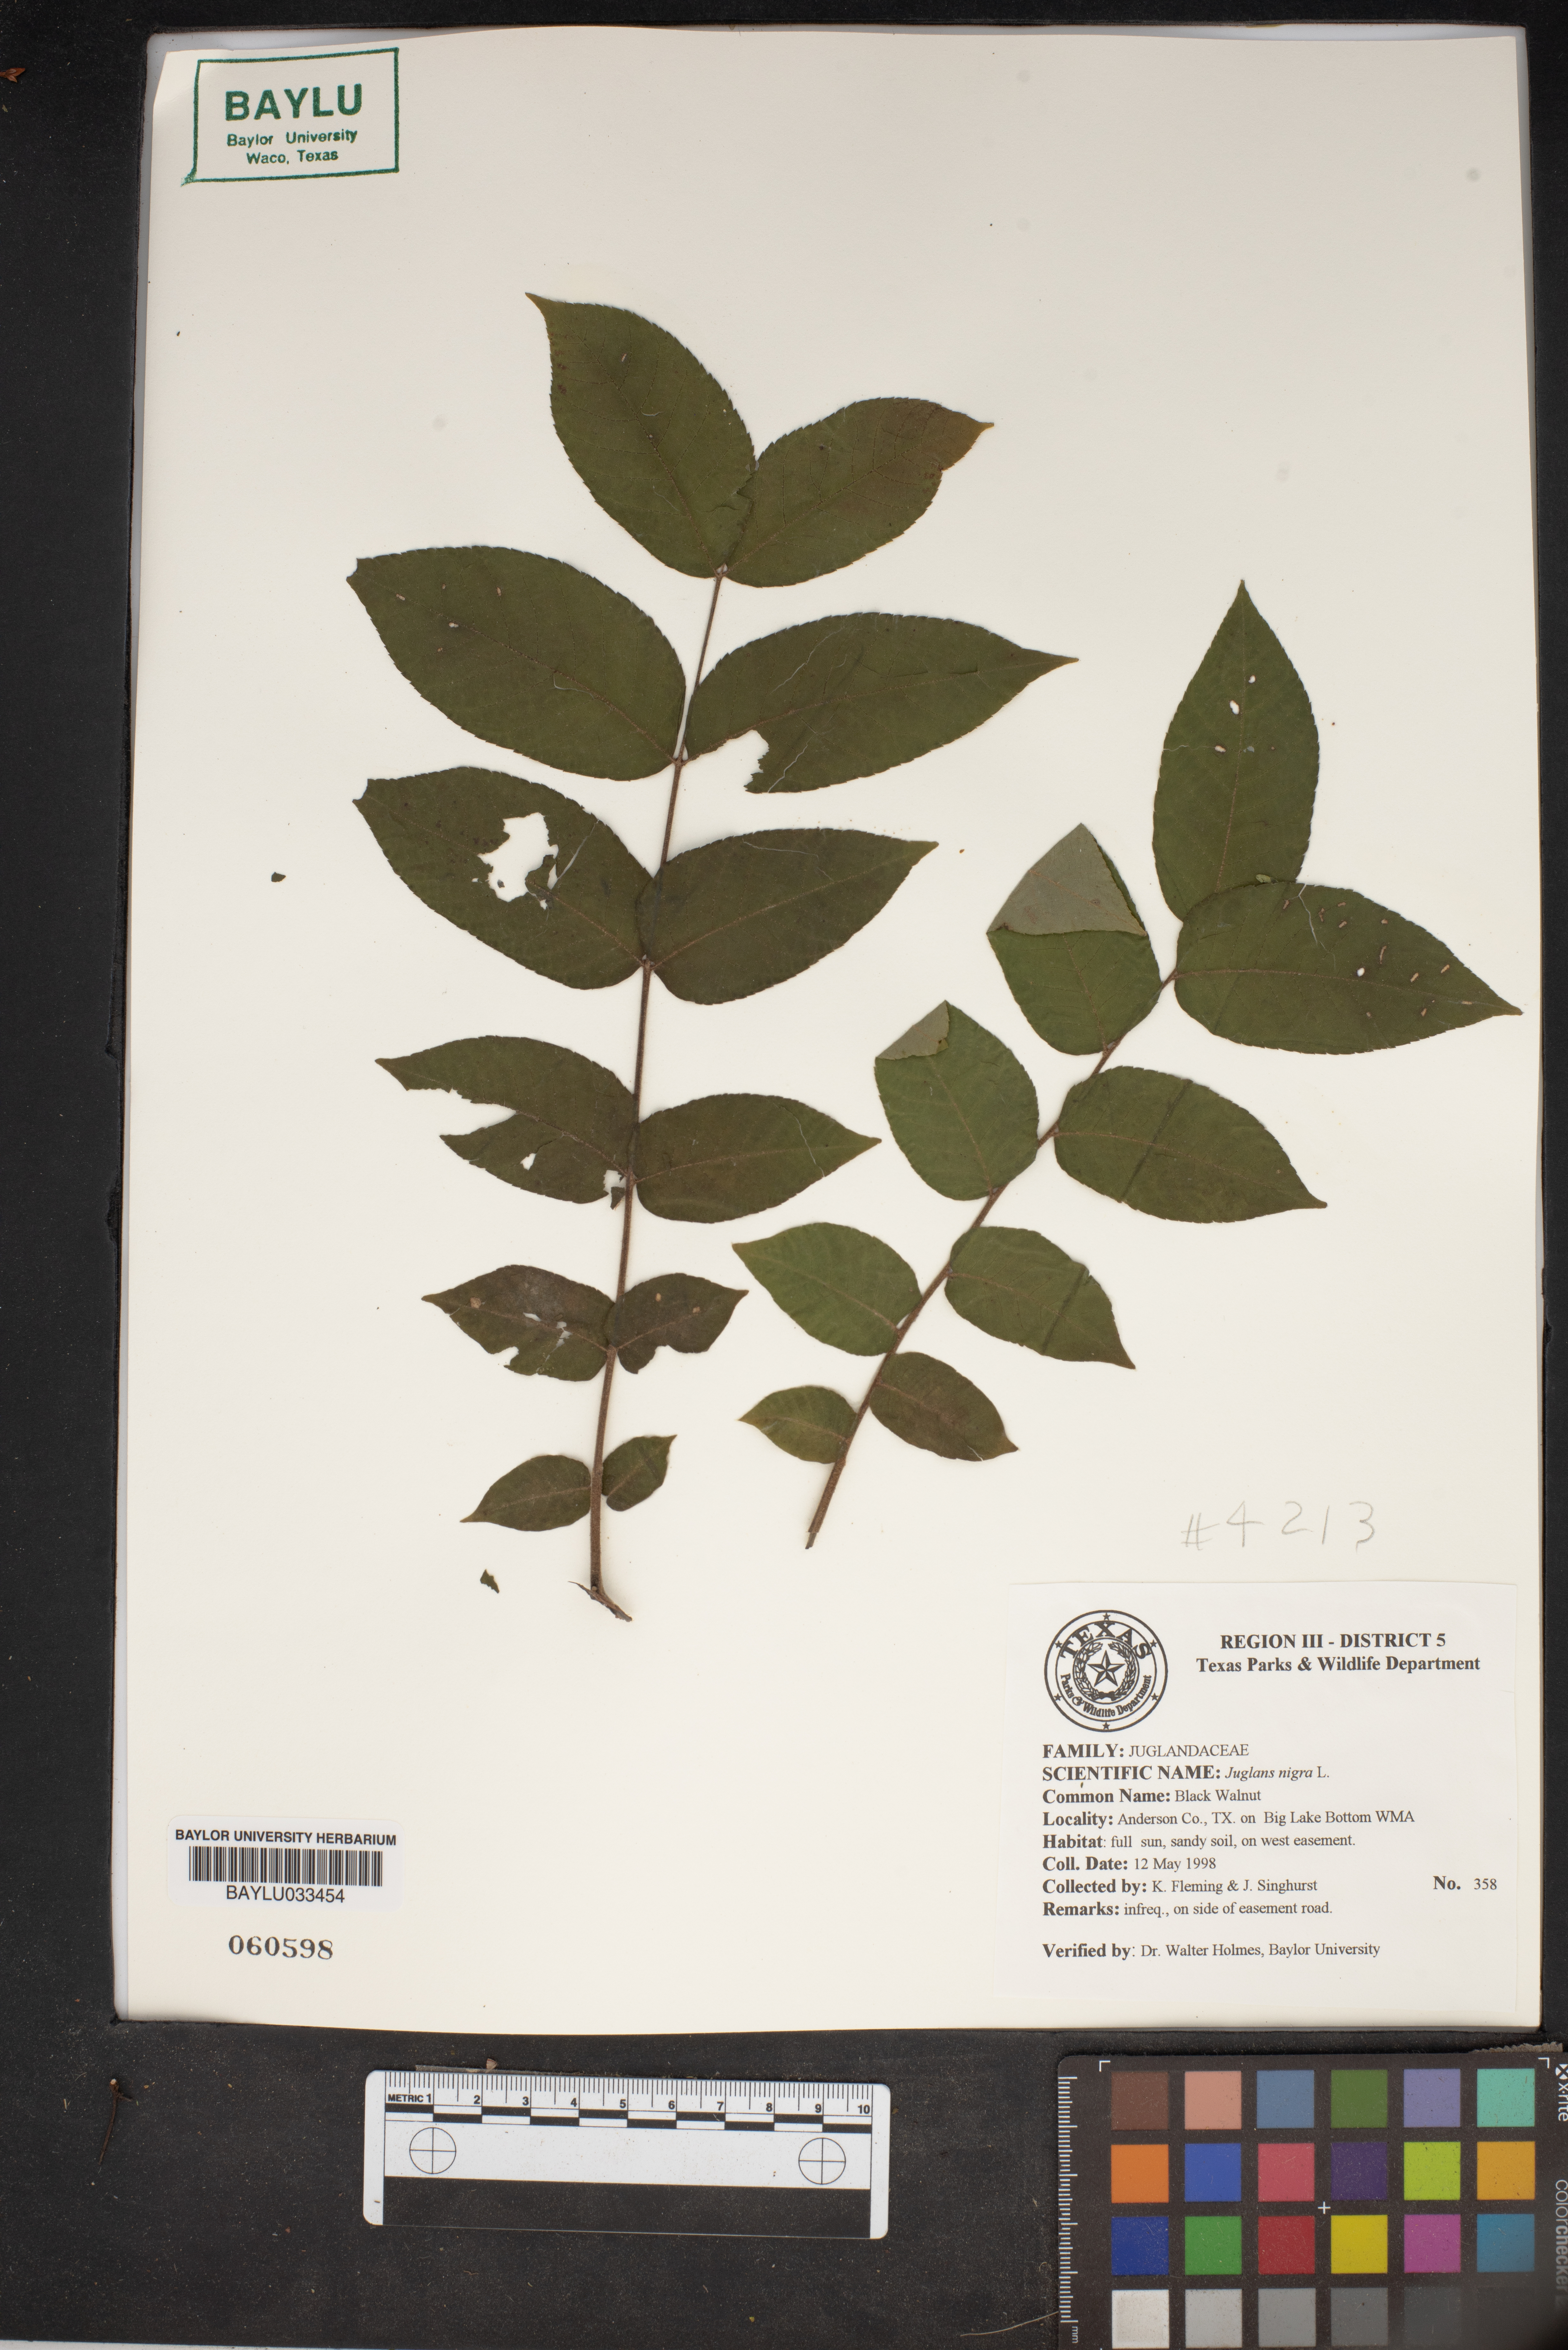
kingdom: Plantae
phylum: Tracheophyta
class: Magnoliopsida
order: Fagales
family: Juglandaceae
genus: Juglans
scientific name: Juglans nigra
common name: Black walnut
